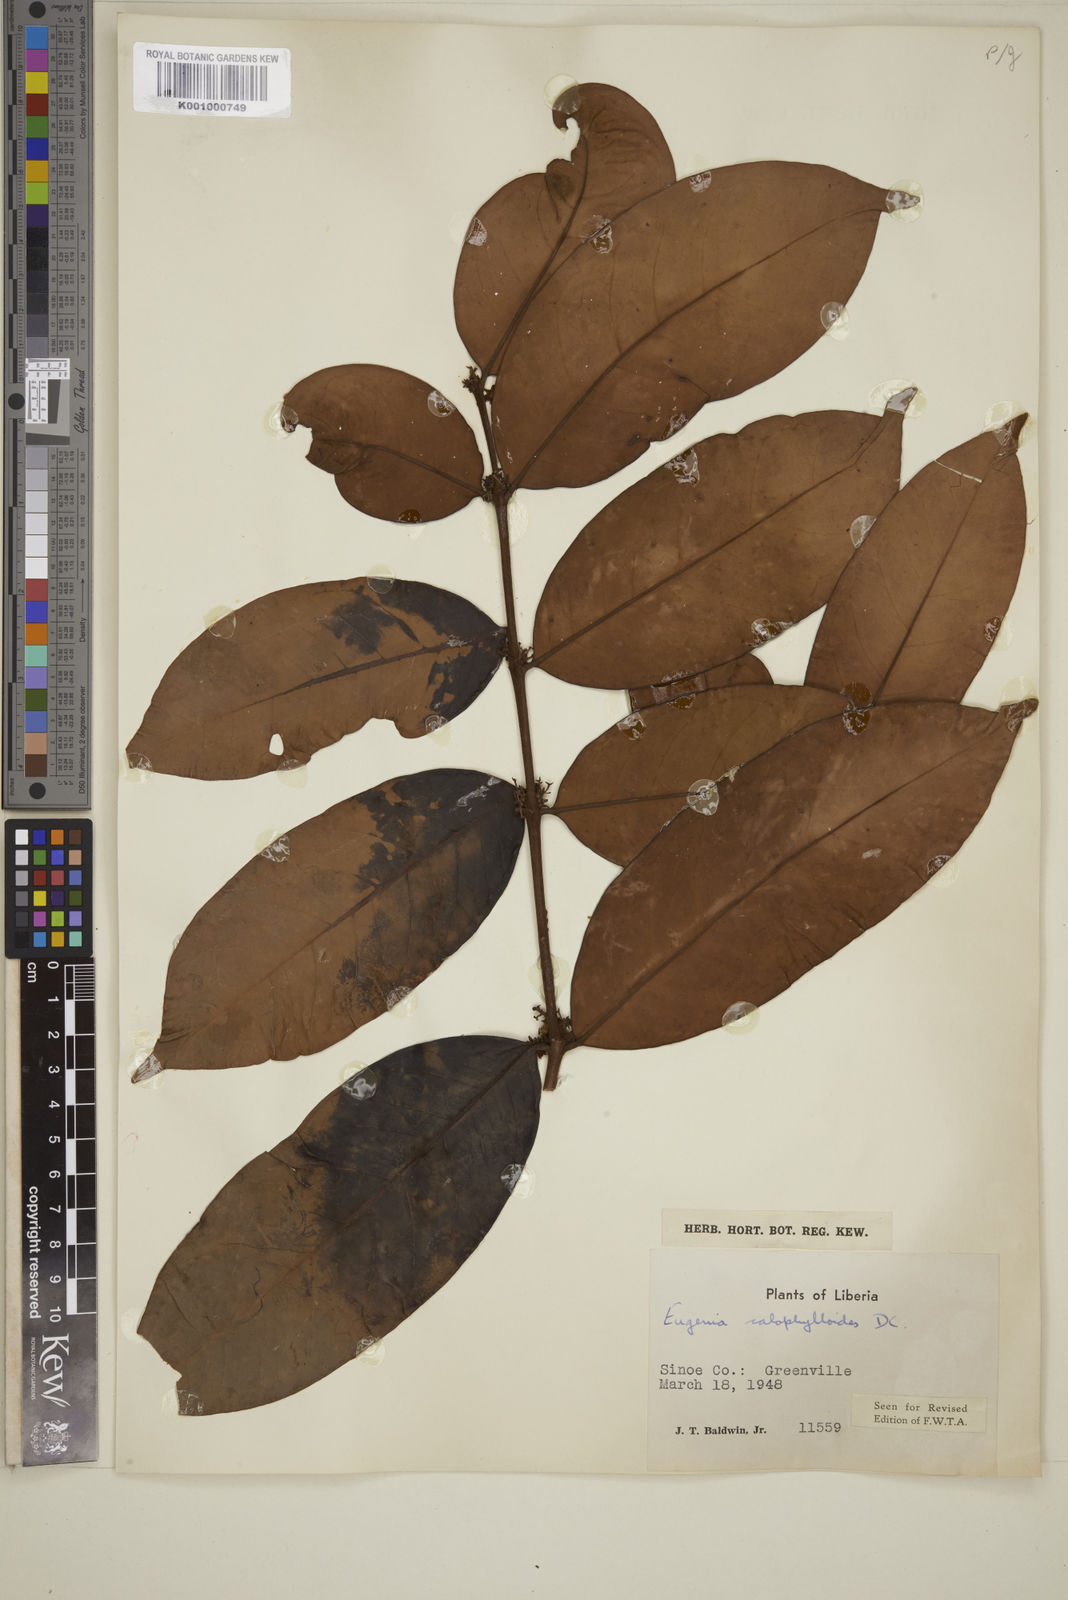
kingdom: Plantae
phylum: Tracheophyta
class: Magnoliopsida
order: Myrtales
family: Myrtaceae
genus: Eugenia
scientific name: Eugenia calophylloides
